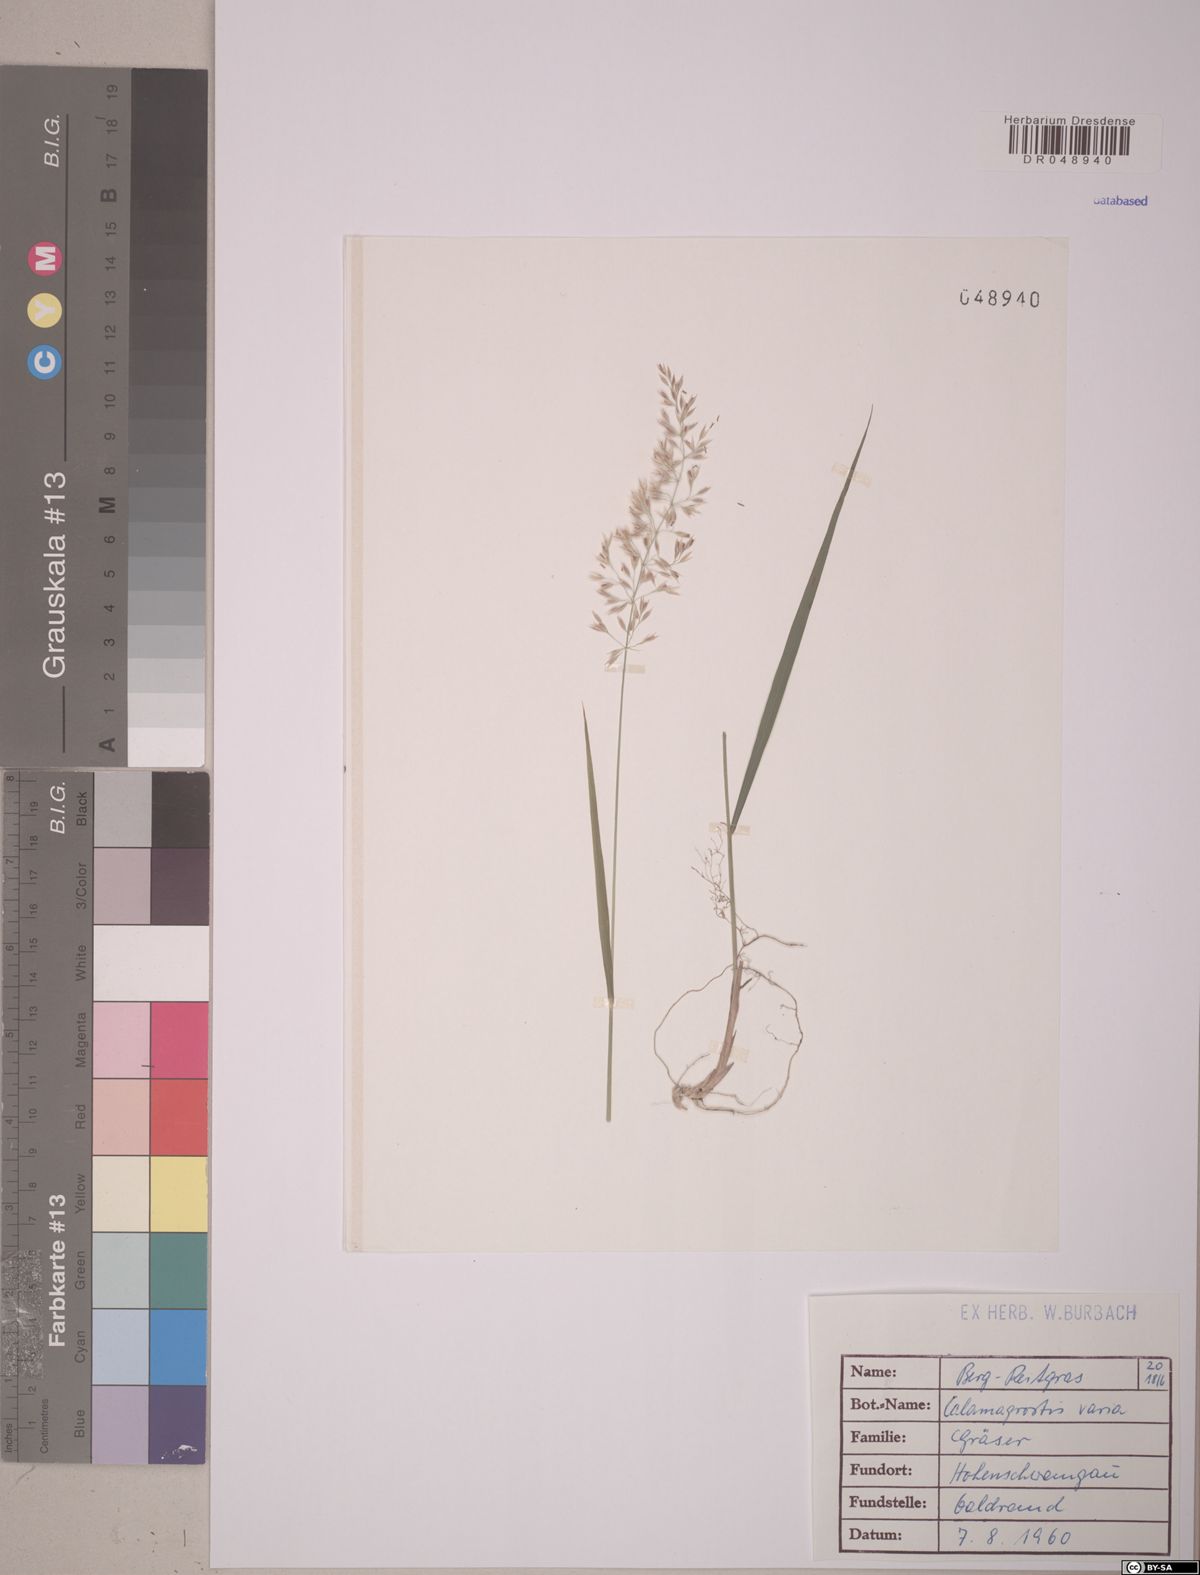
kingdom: Plantae
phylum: Tracheophyta
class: Liliopsida
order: Poales
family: Poaceae
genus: Calamagrostis
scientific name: Calamagrostis varia
